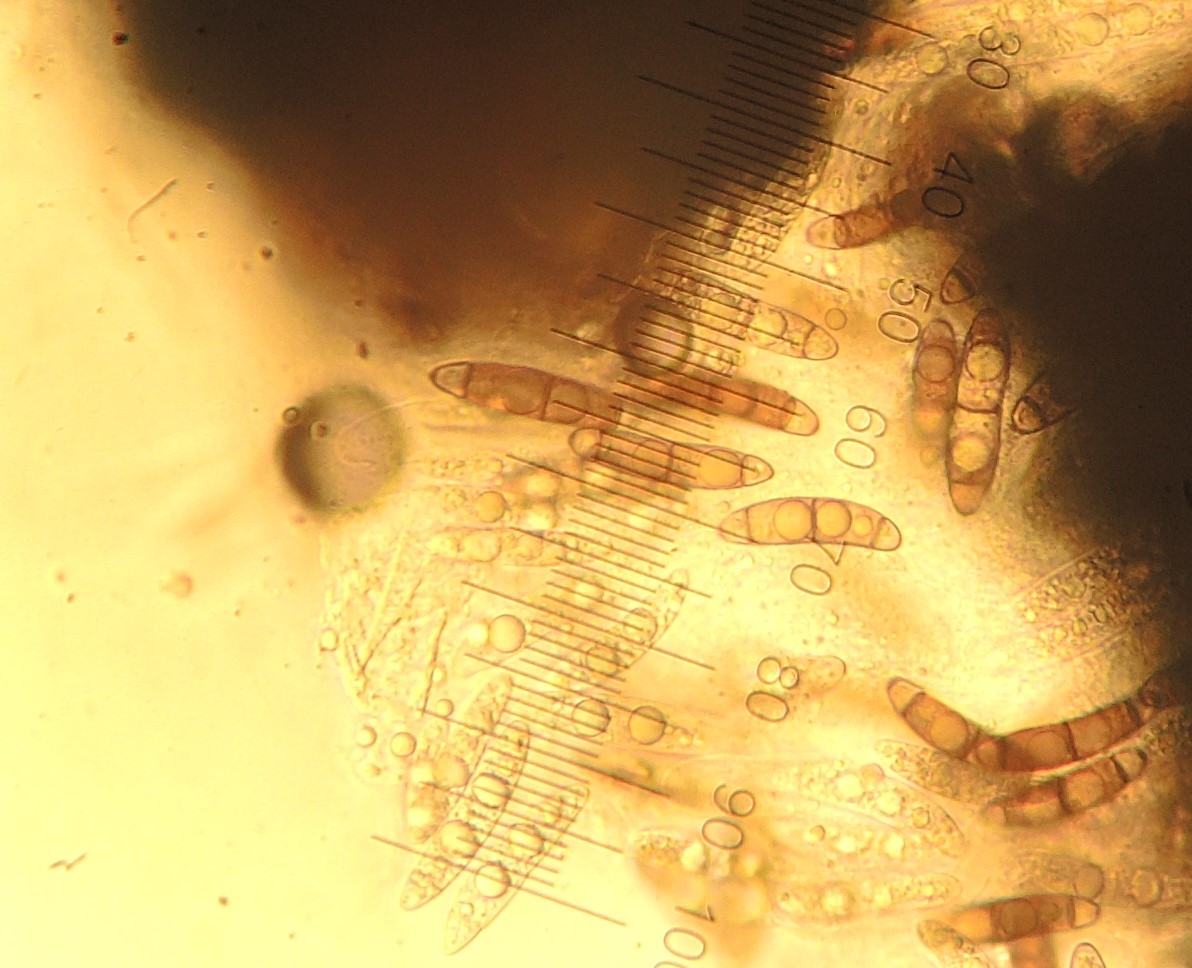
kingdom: Fungi
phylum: Ascomycota
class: Sordariomycetes
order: Coronophorales
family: Chaetosphaerellaceae
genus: Chaetosphaerella
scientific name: Chaetosphaerella phaeostroma
